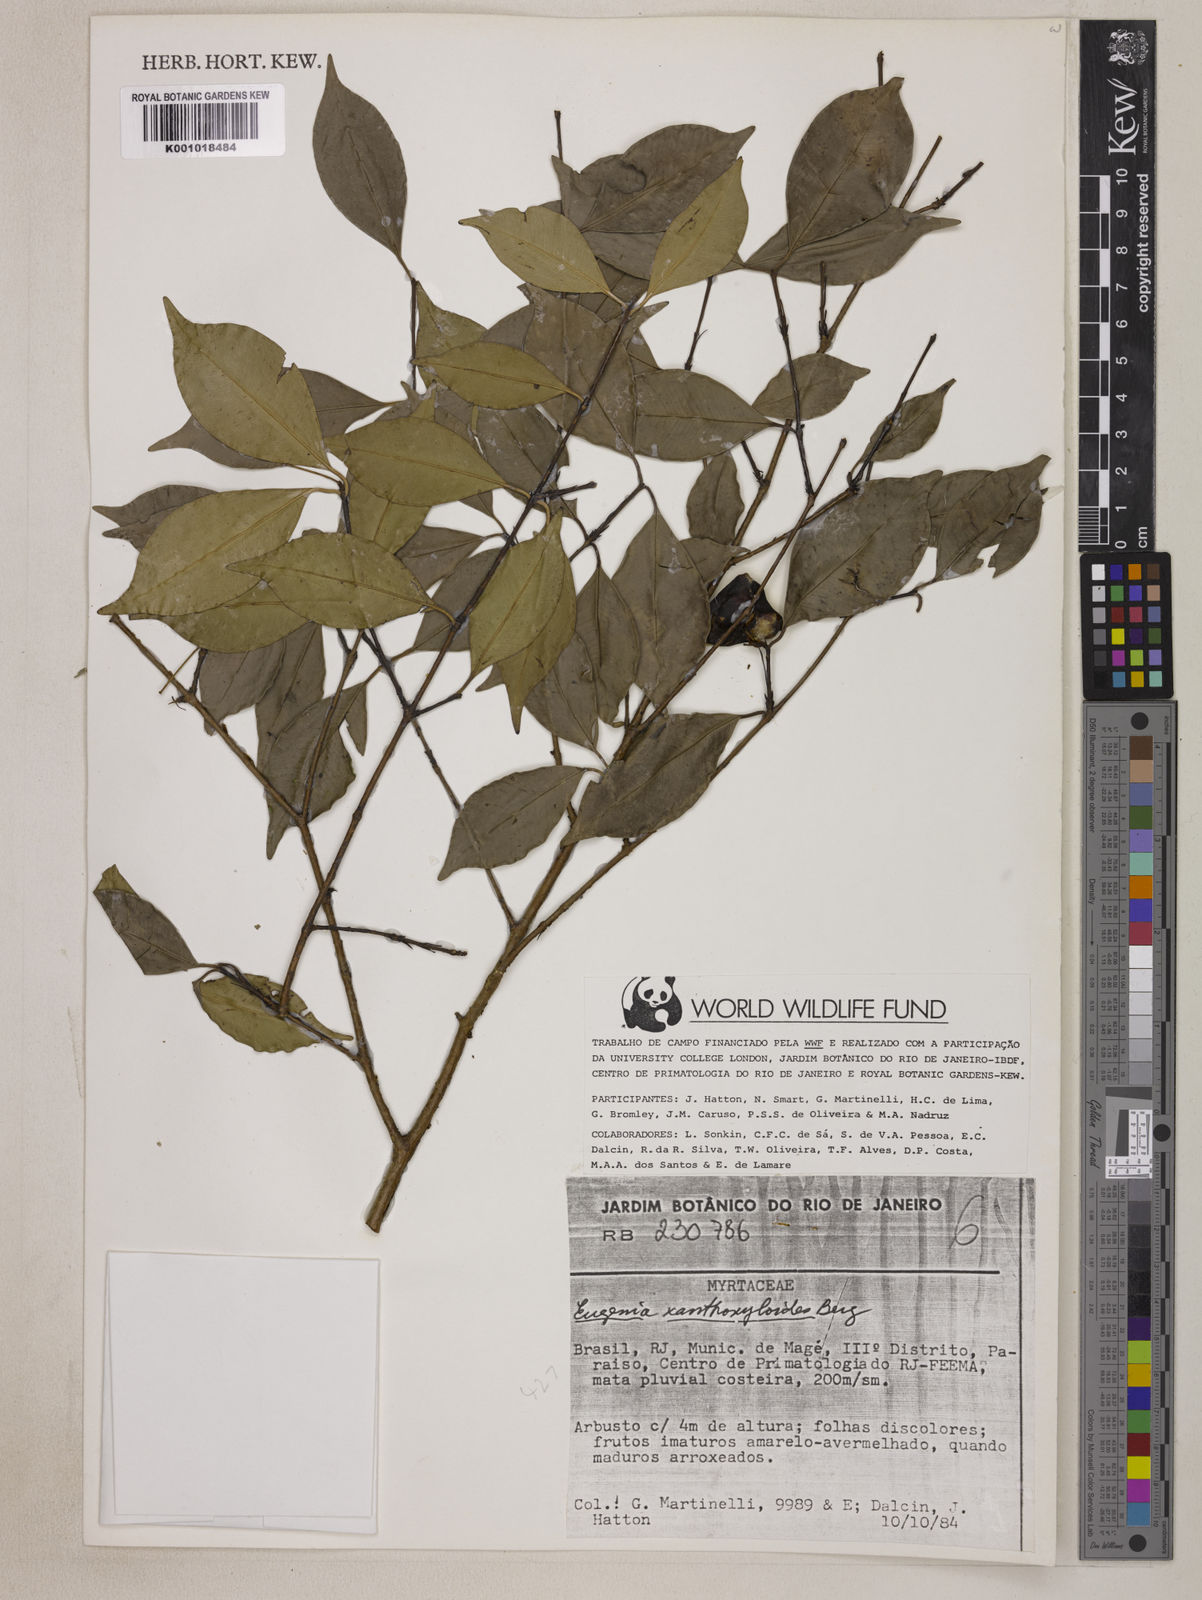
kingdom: Plantae
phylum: Tracheophyta
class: Magnoliopsida
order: Myrtales
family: Myrtaceae
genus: Eugenia
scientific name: Eugenia xanthoxyloides
